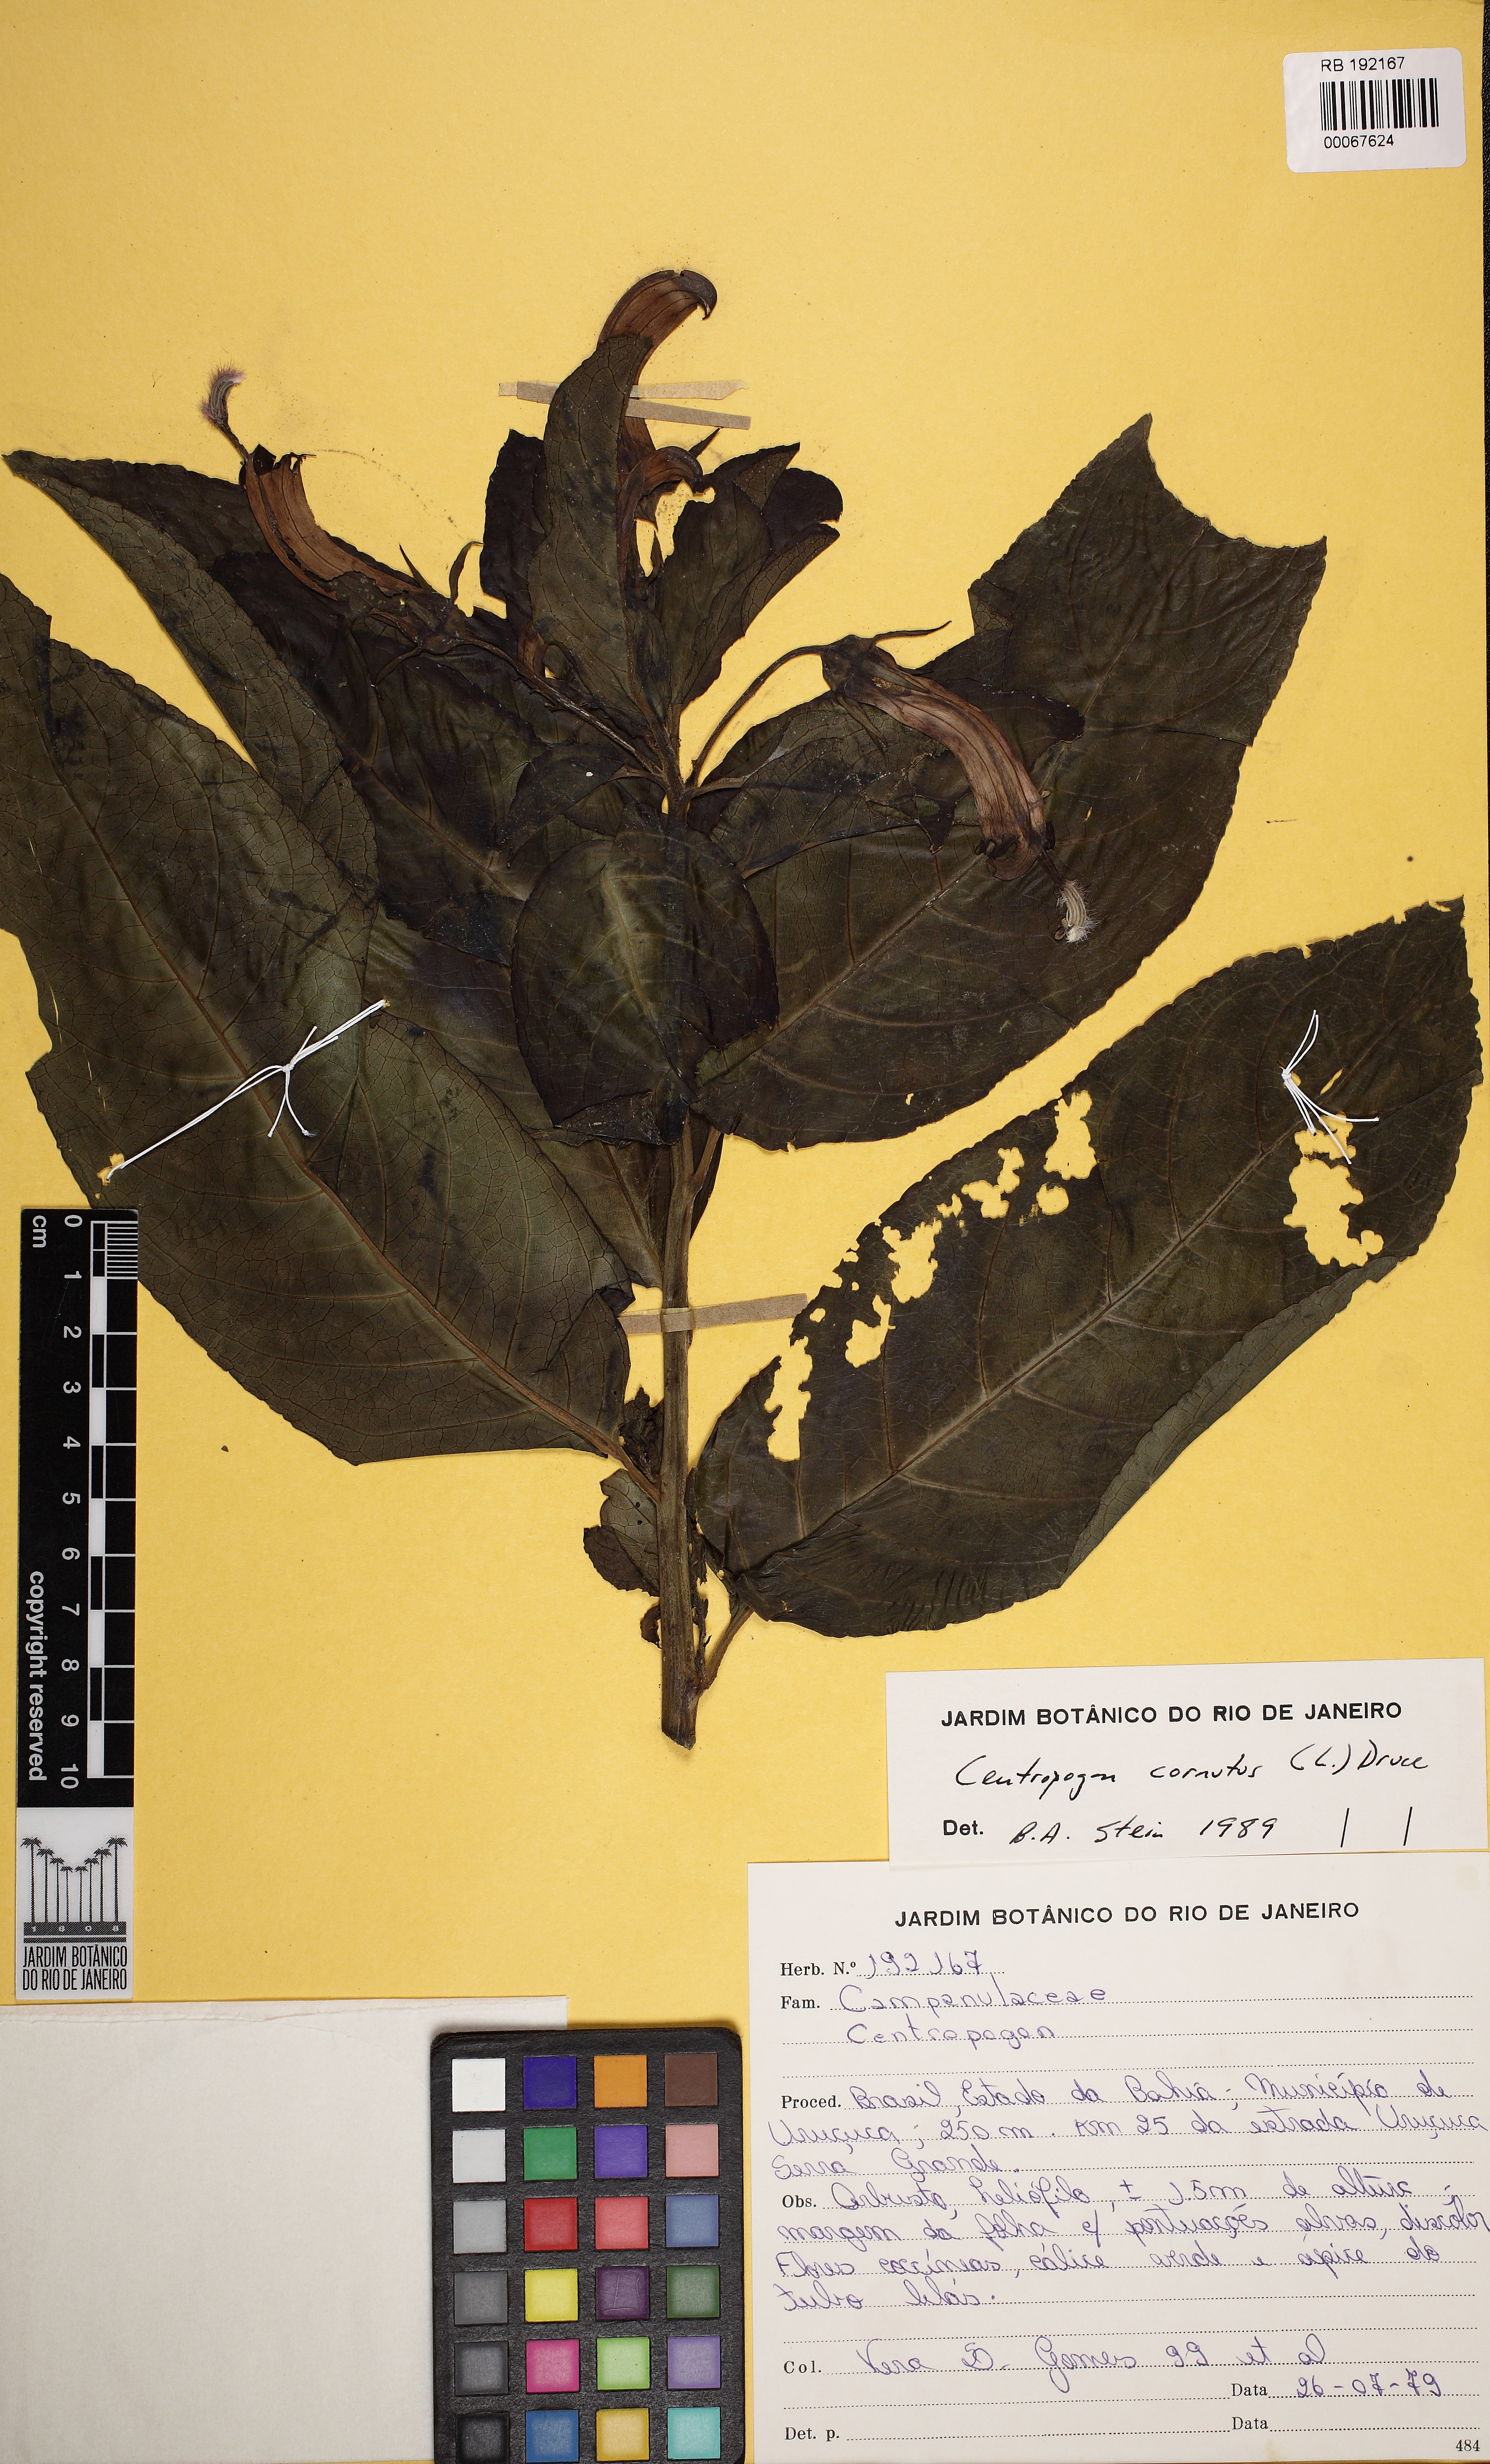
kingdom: Plantae
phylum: Tracheophyta
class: Magnoliopsida
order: Asterales
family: Campanulaceae
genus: Centropogon
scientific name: Centropogon cornutus
